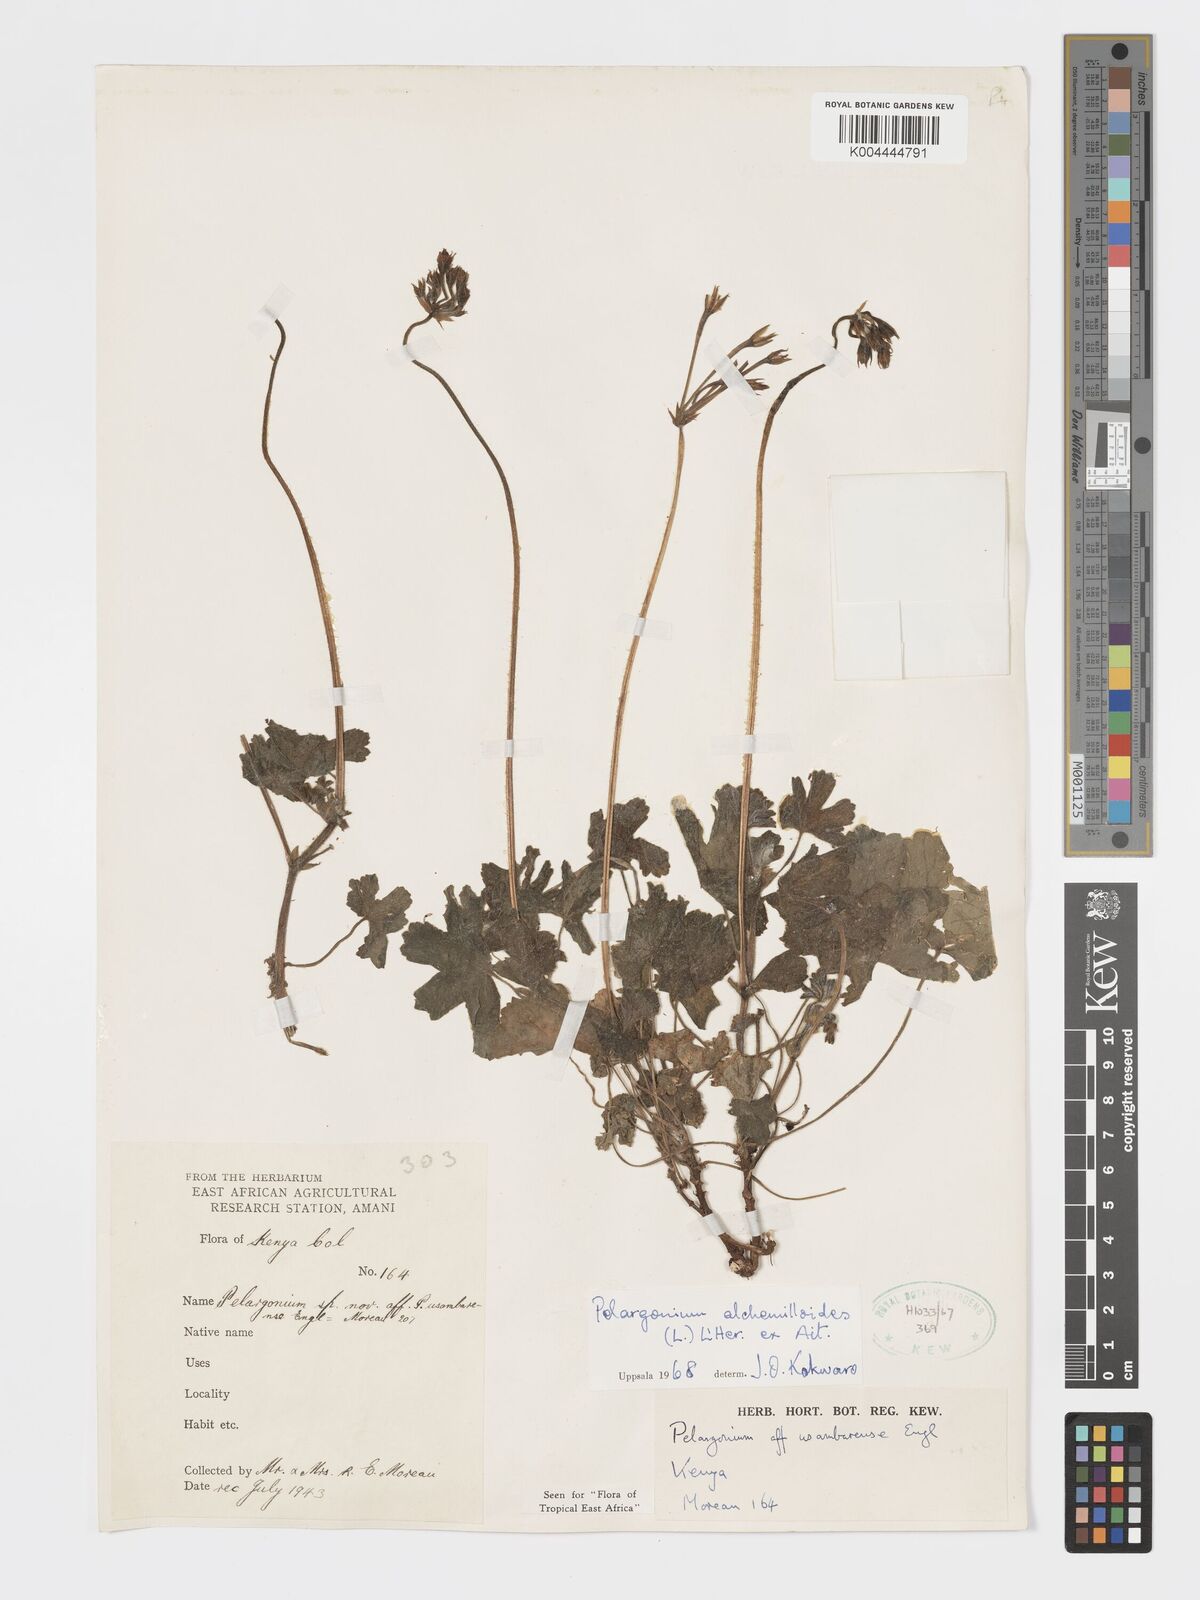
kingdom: Plantae
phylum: Tracheophyta
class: Magnoliopsida
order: Geraniales
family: Geraniaceae
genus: Pelargonium
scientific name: Pelargonium alchemilloides
